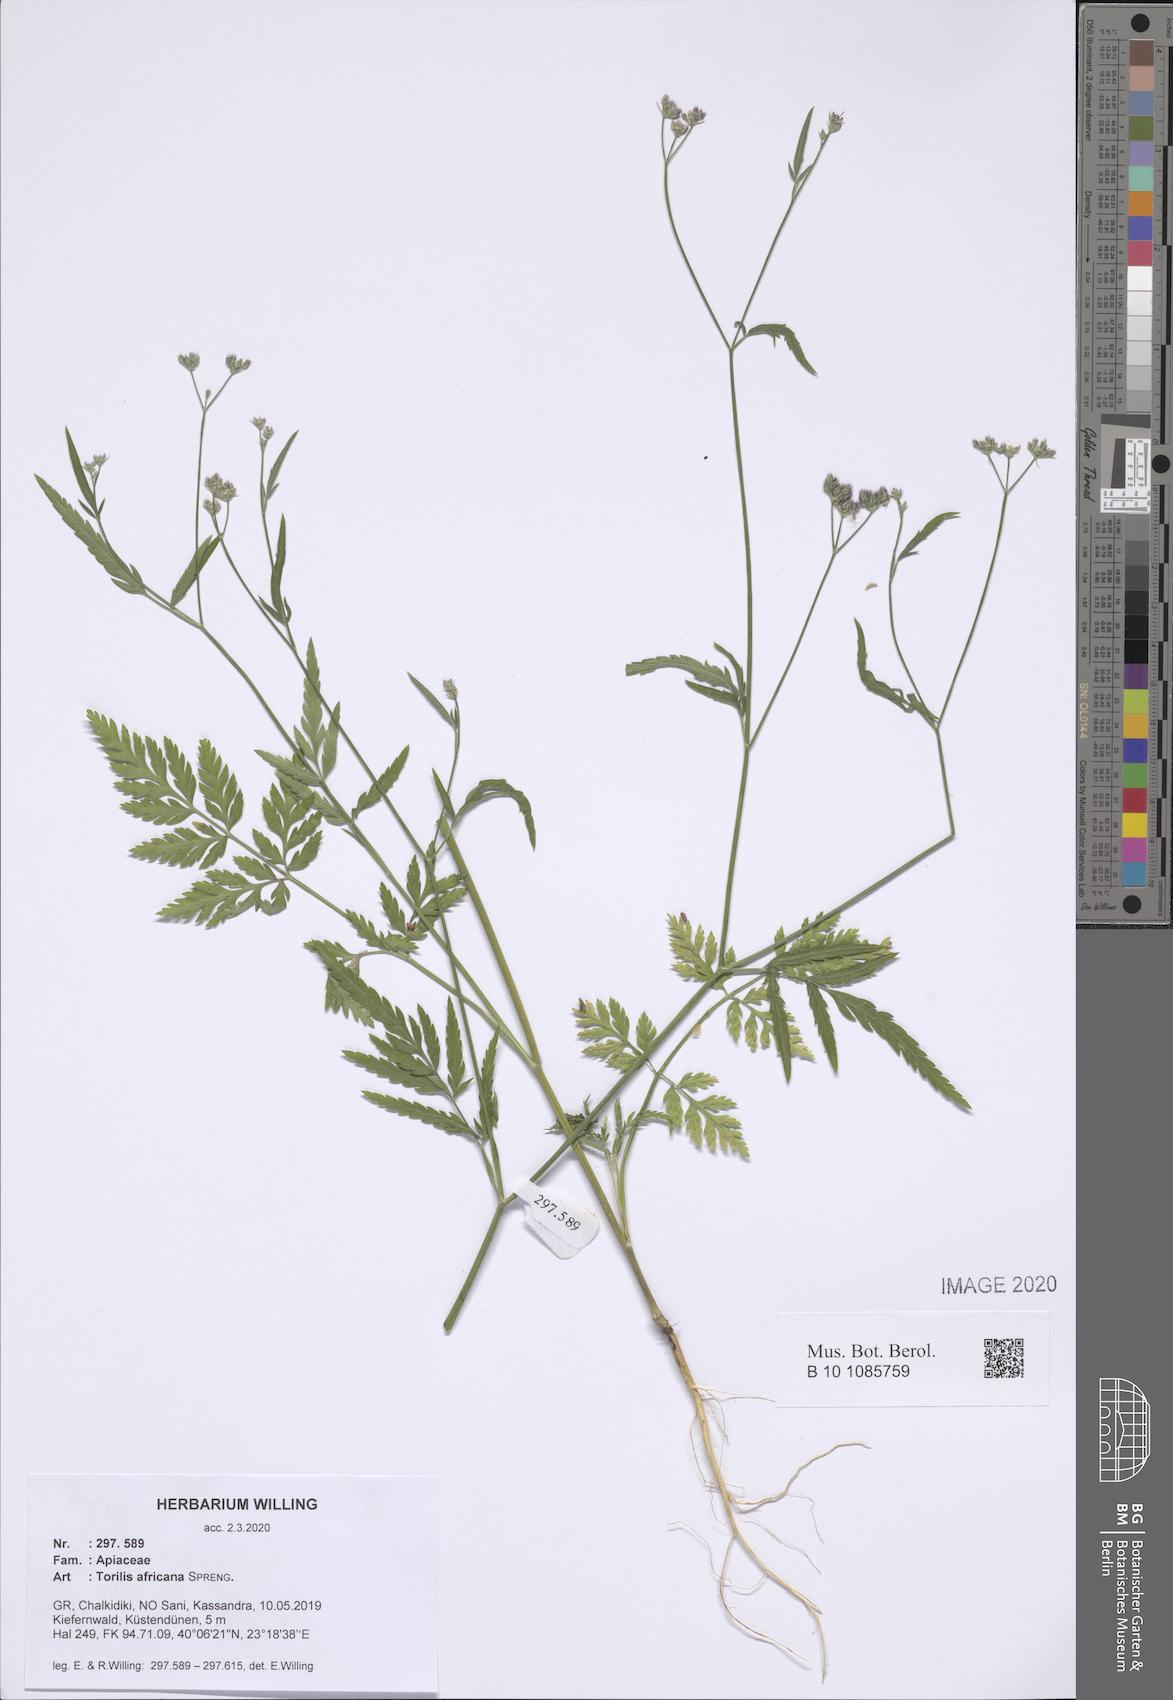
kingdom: Plantae
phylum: Tracheophyta
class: Magnoliopsida
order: Apiales
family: Apiaceae
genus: Torilis
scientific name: Torilis africana
